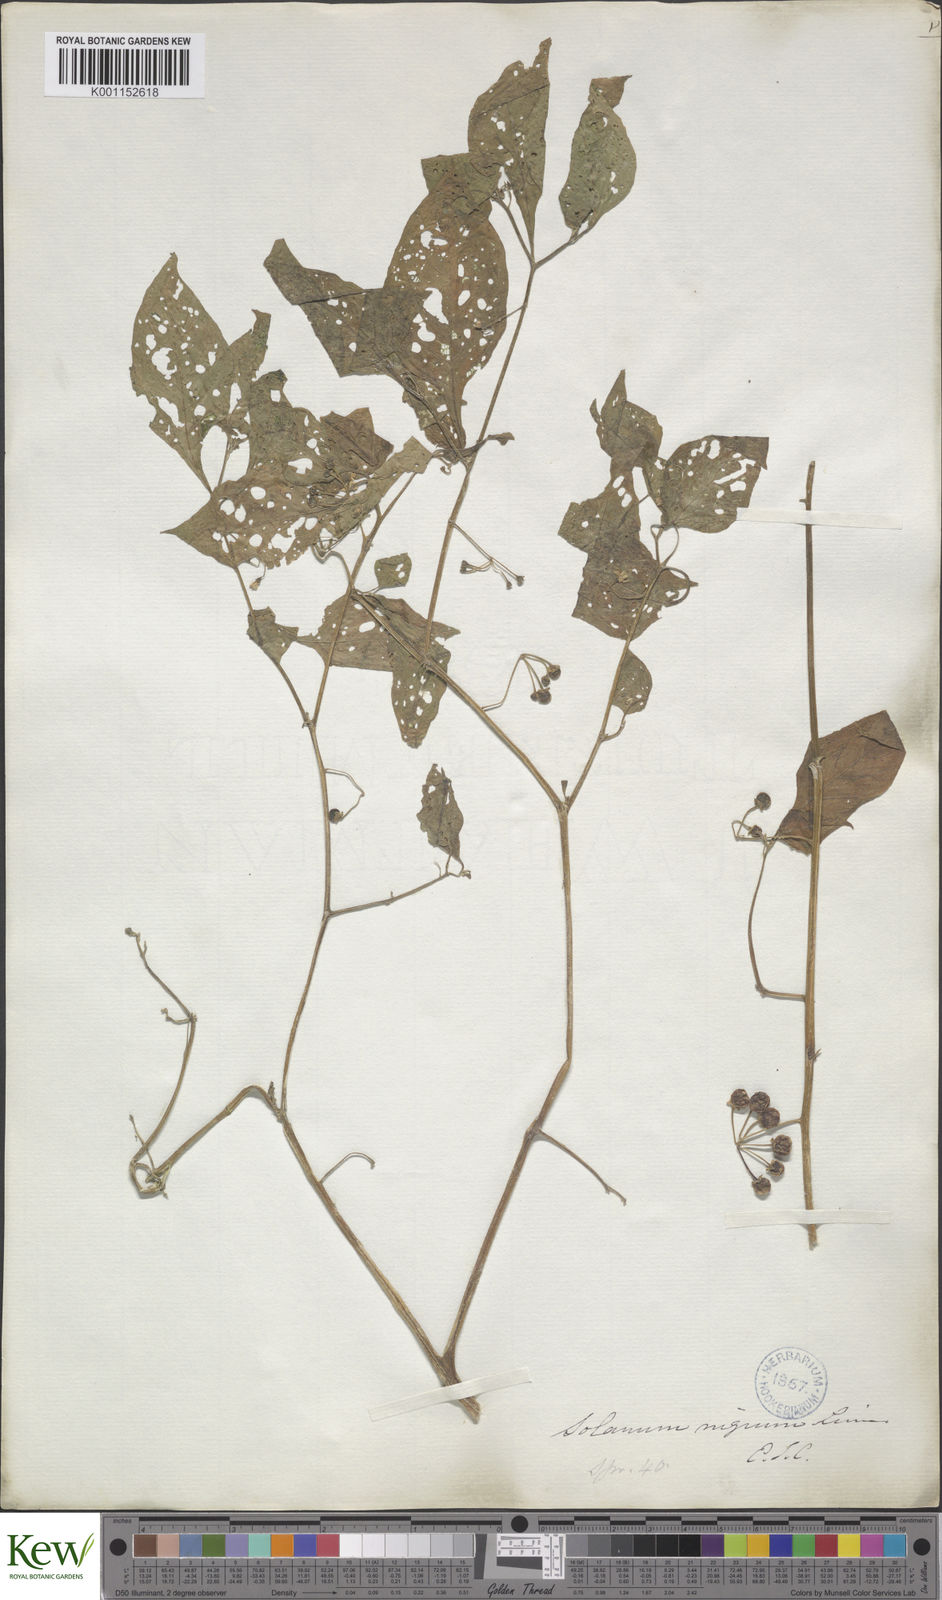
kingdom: Plantae
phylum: Tracheophyta
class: Magnoliopsida
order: Solanales
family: Solanaceae
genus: Solanum
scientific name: Solanum nigrum
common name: Black nightshade
